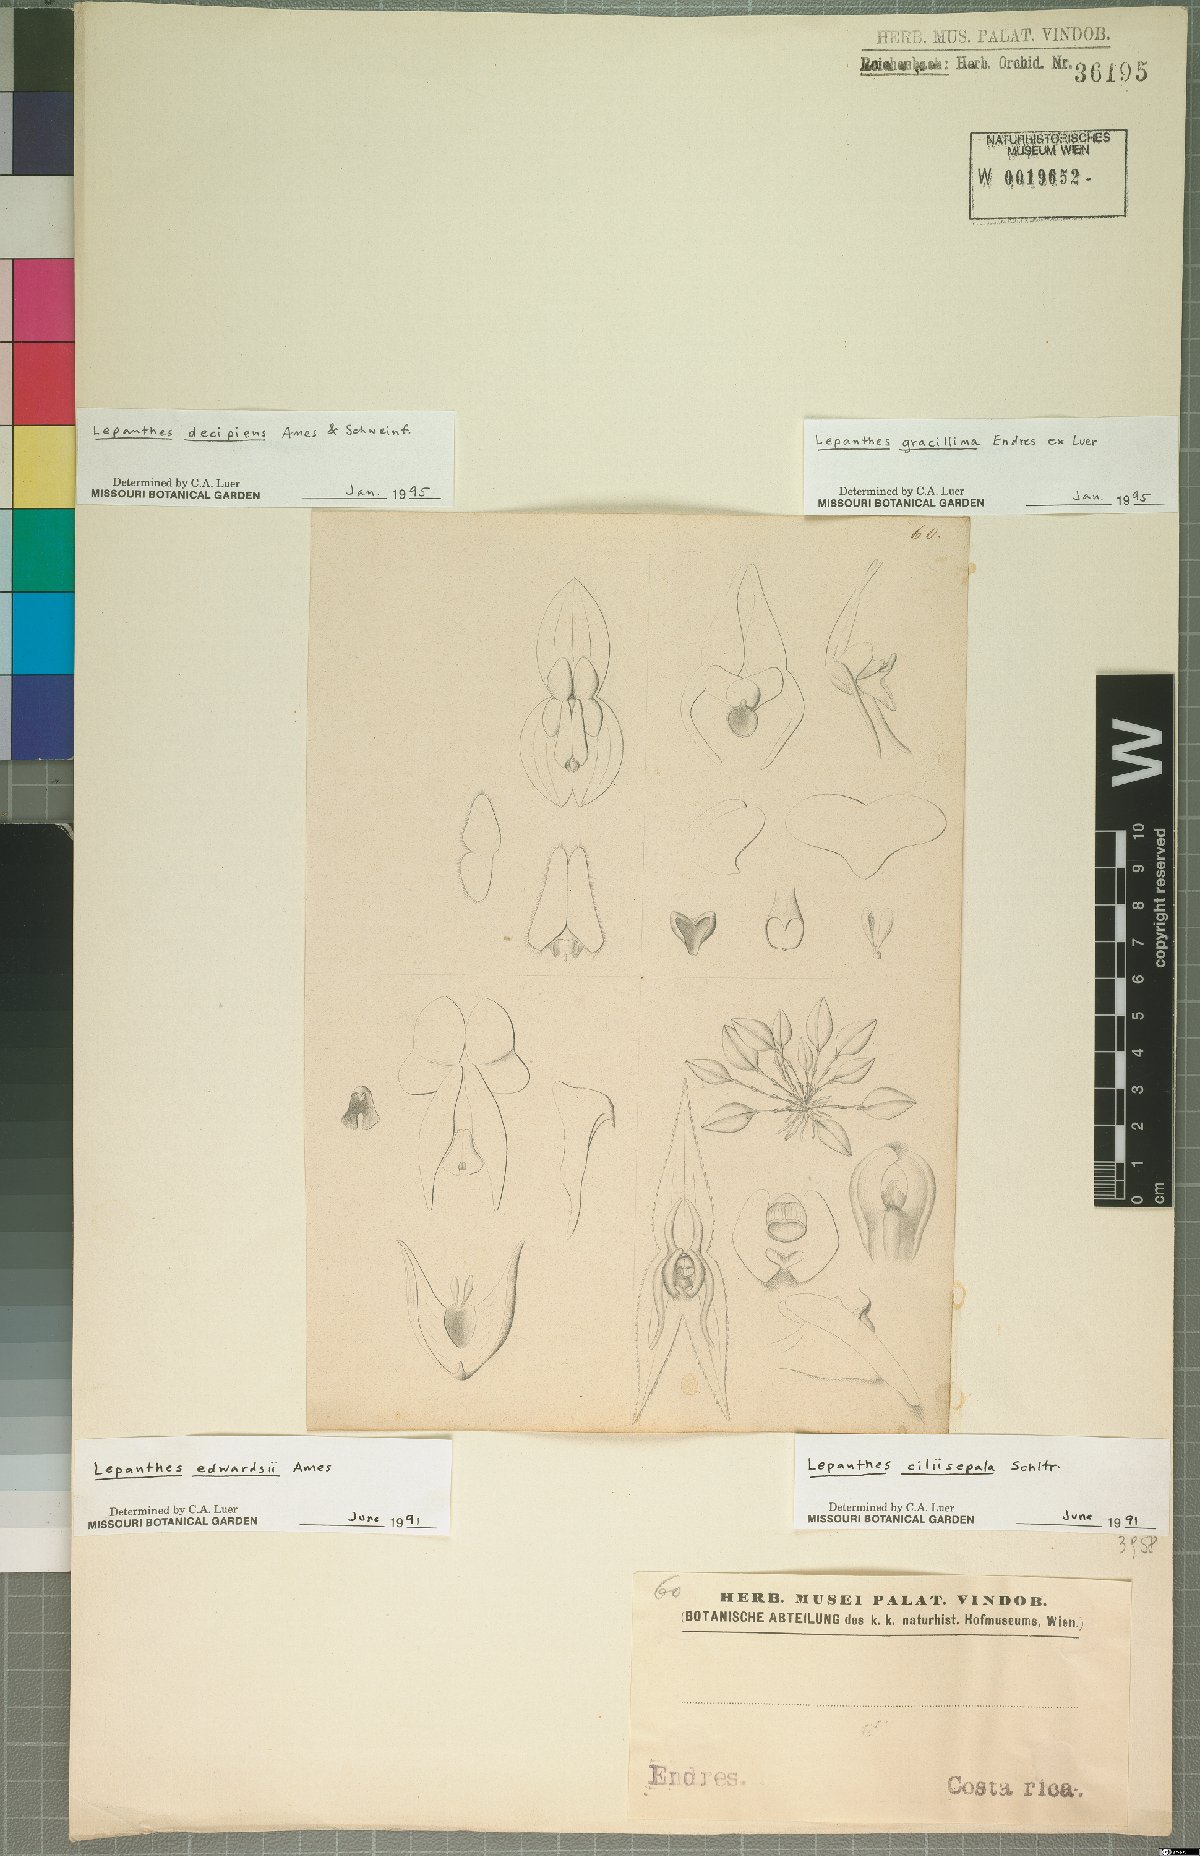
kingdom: Plantae
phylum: Tracheophyta
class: Liliopsida
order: Asparagales
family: Orchidaceae
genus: Lepanthes
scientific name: Lepanthes ciliisepala
